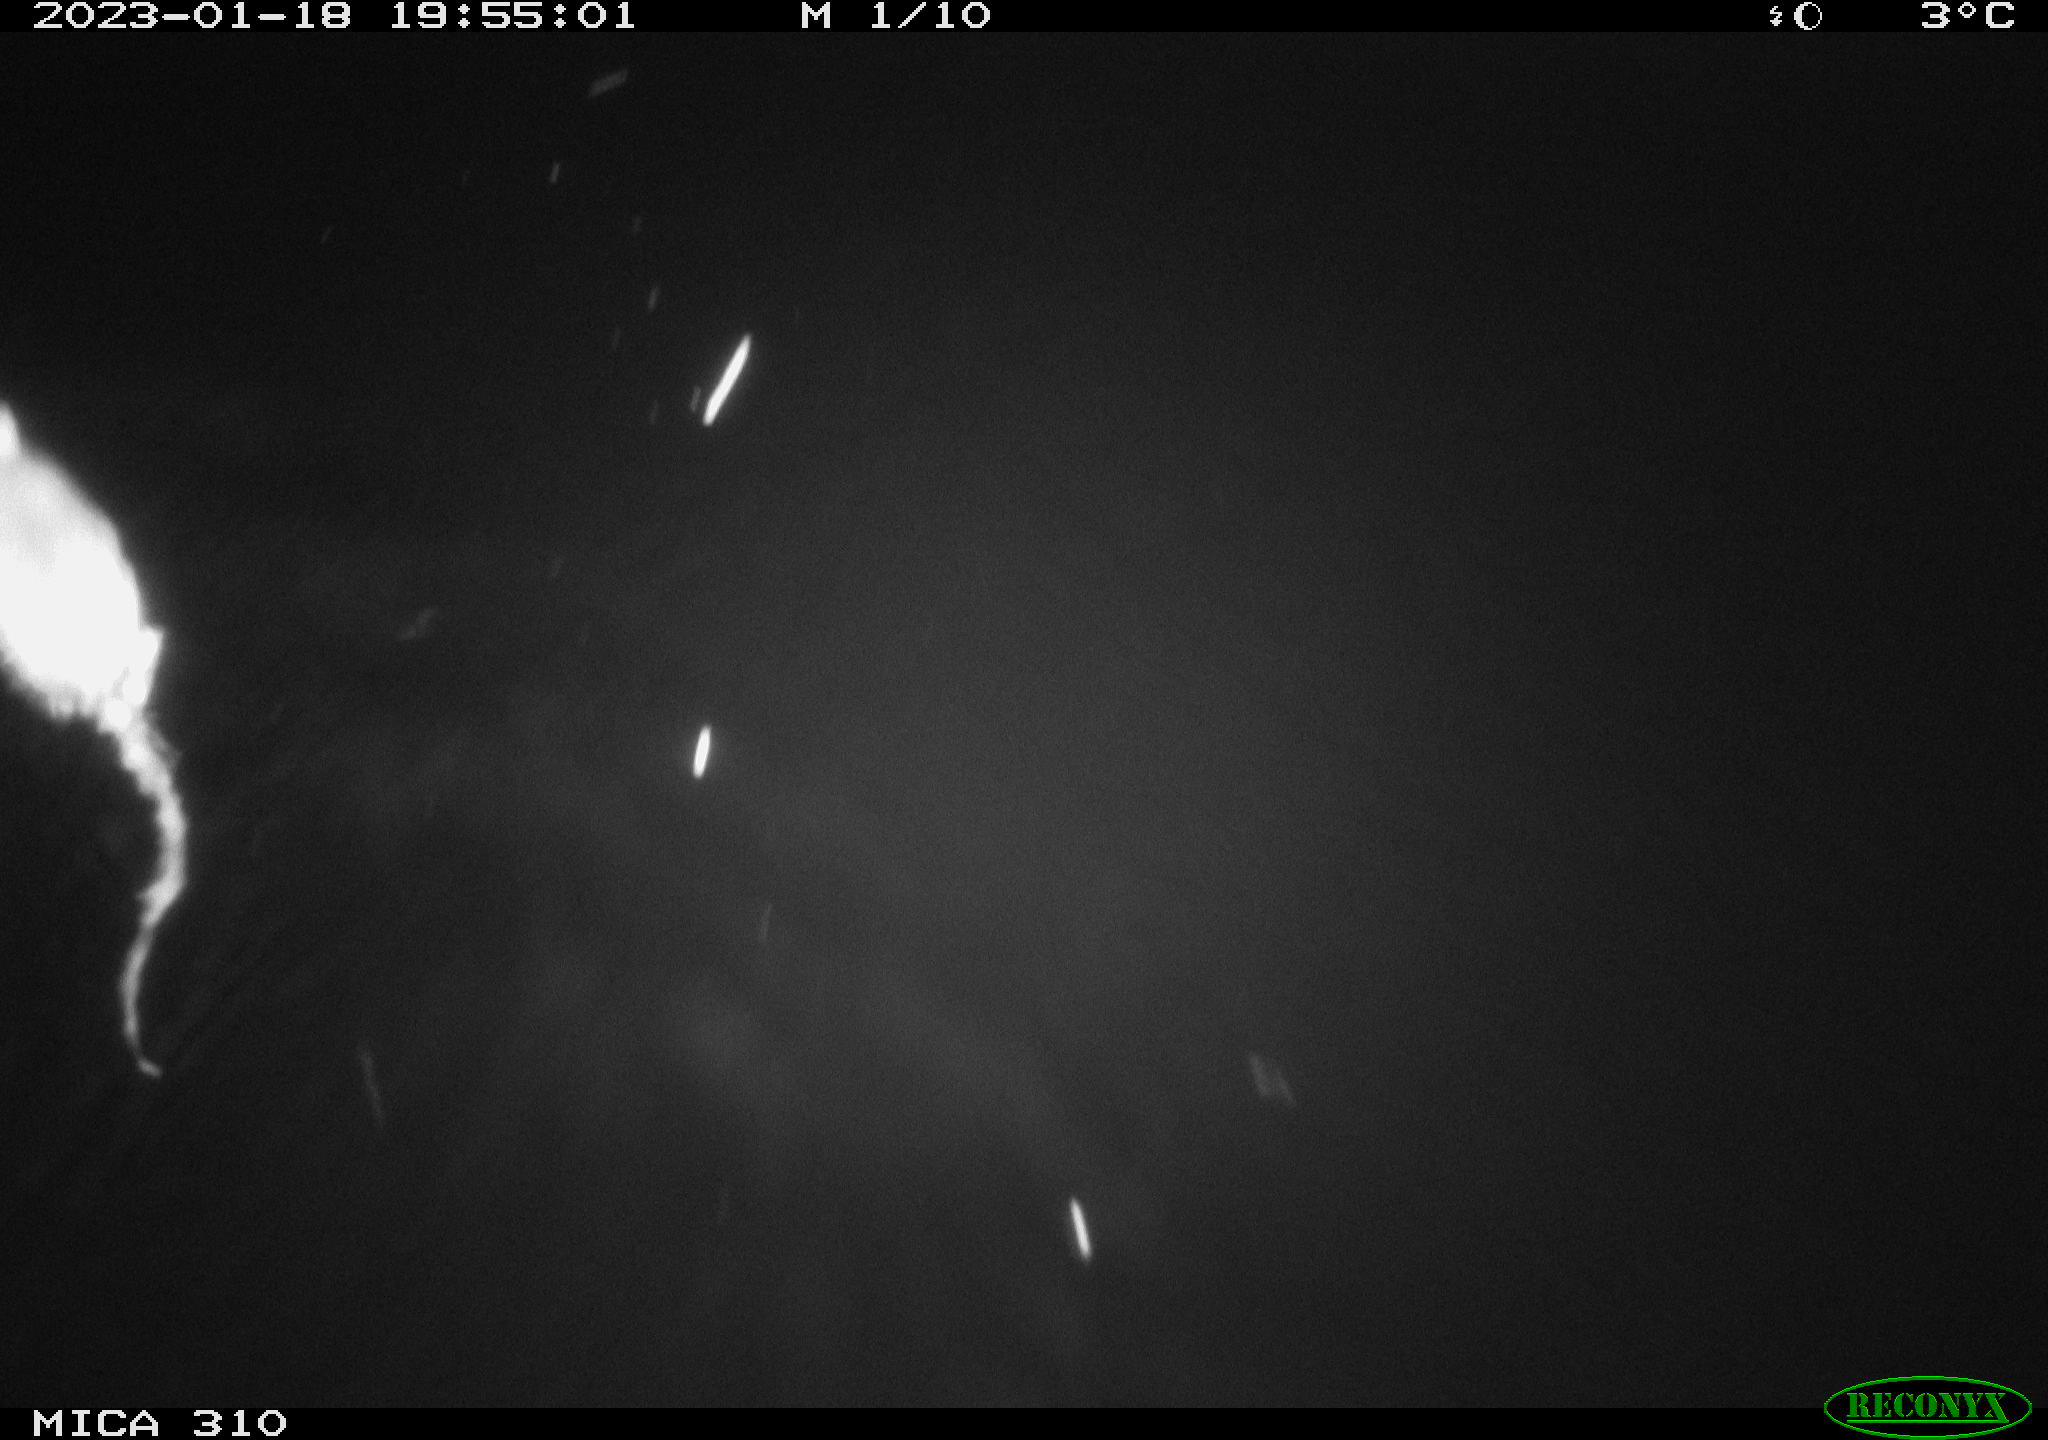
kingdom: Animalia
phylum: Chordata
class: Mammalia
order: Rodentia
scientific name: Rodentia
